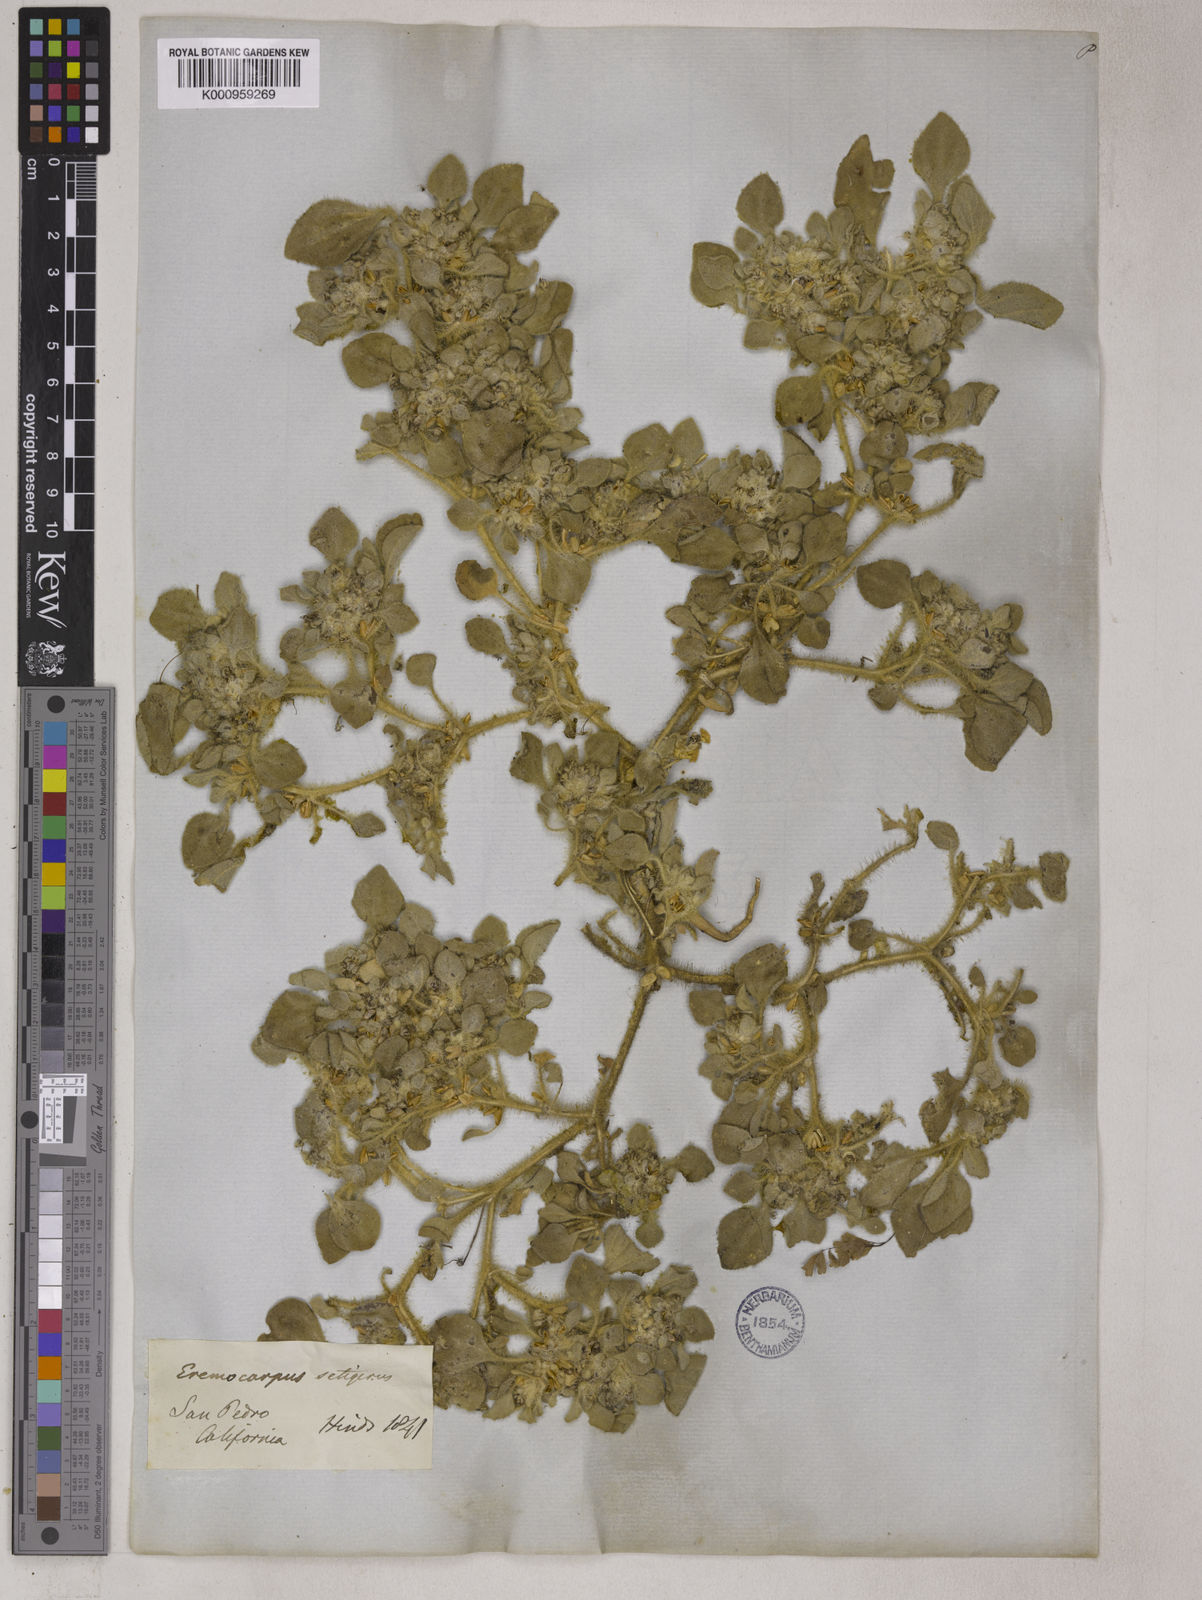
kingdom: Plantae
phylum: Tracheophyta
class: Magnoliopsida
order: Apiales
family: Apiaceae
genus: Eremocarpus
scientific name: Eremocarpus
